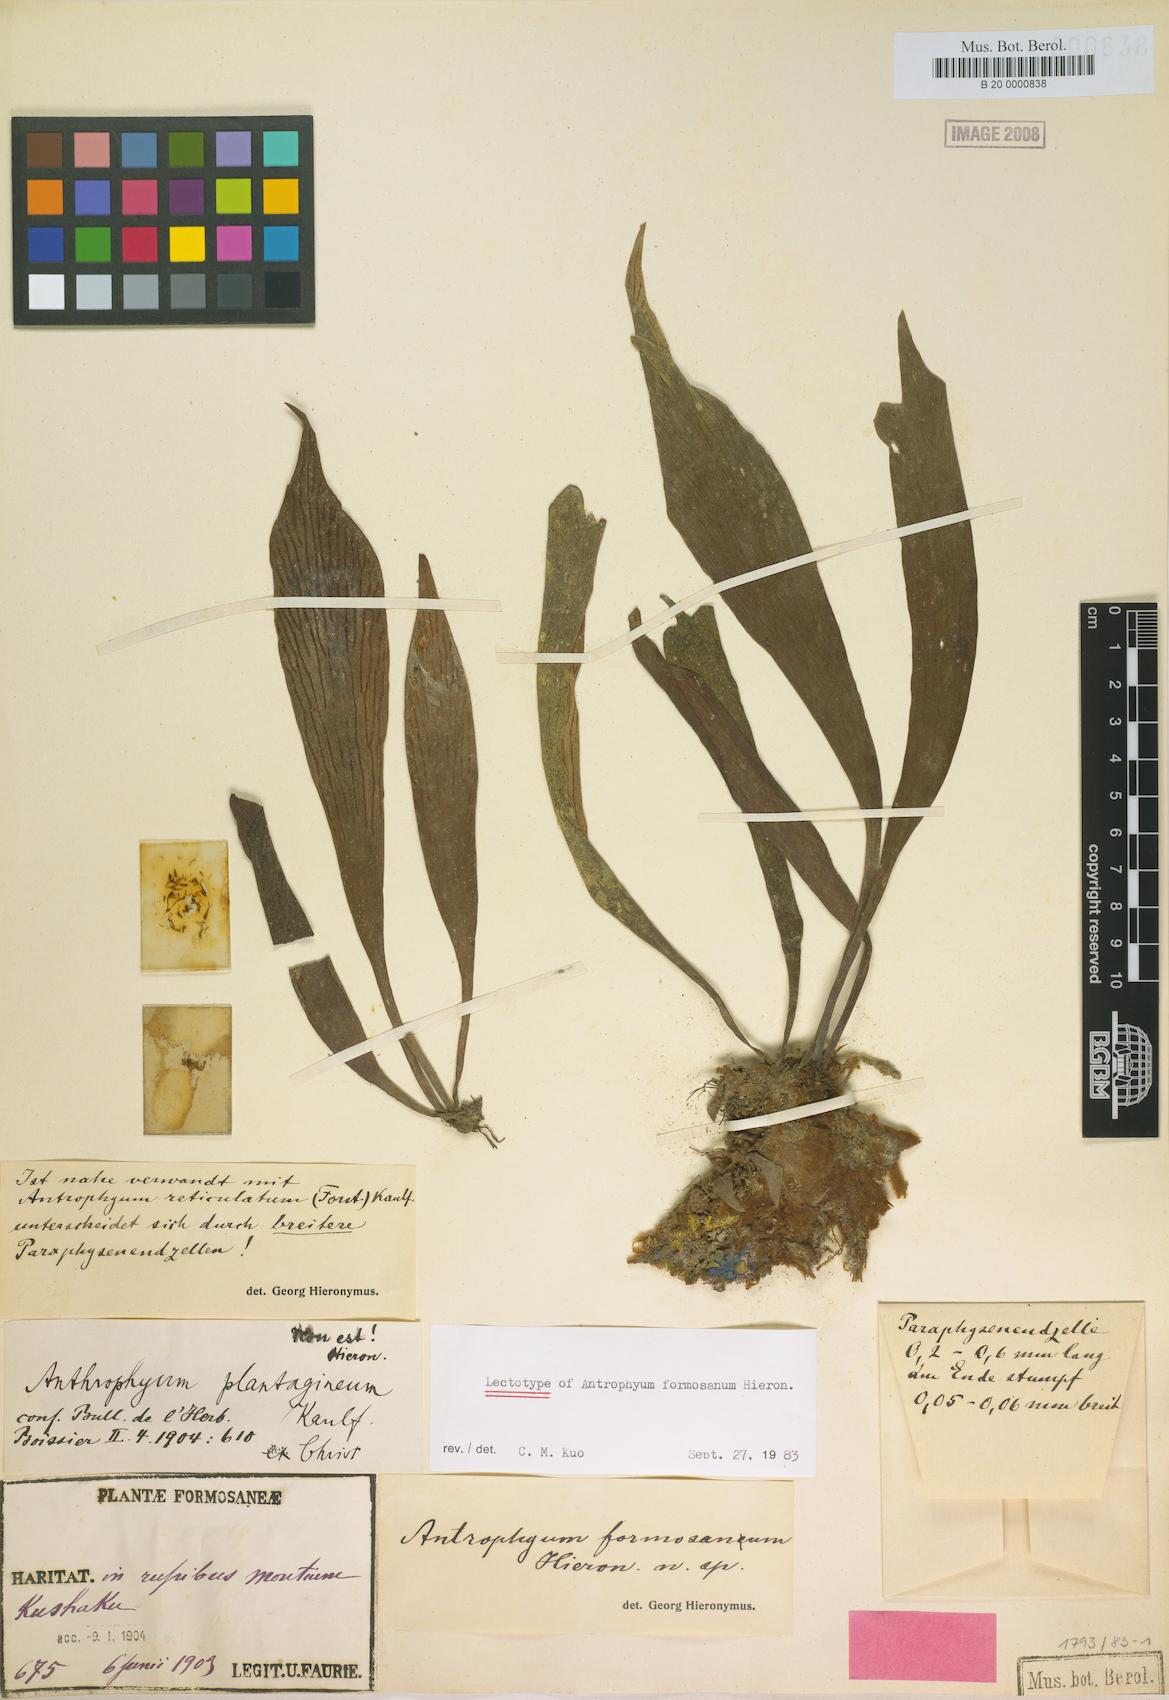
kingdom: Plantae
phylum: Tracheophyta
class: Polypodiopsida
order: Polypodiales
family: Pteridaceae
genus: Antrophyum
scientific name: Antrophyum formosanum
